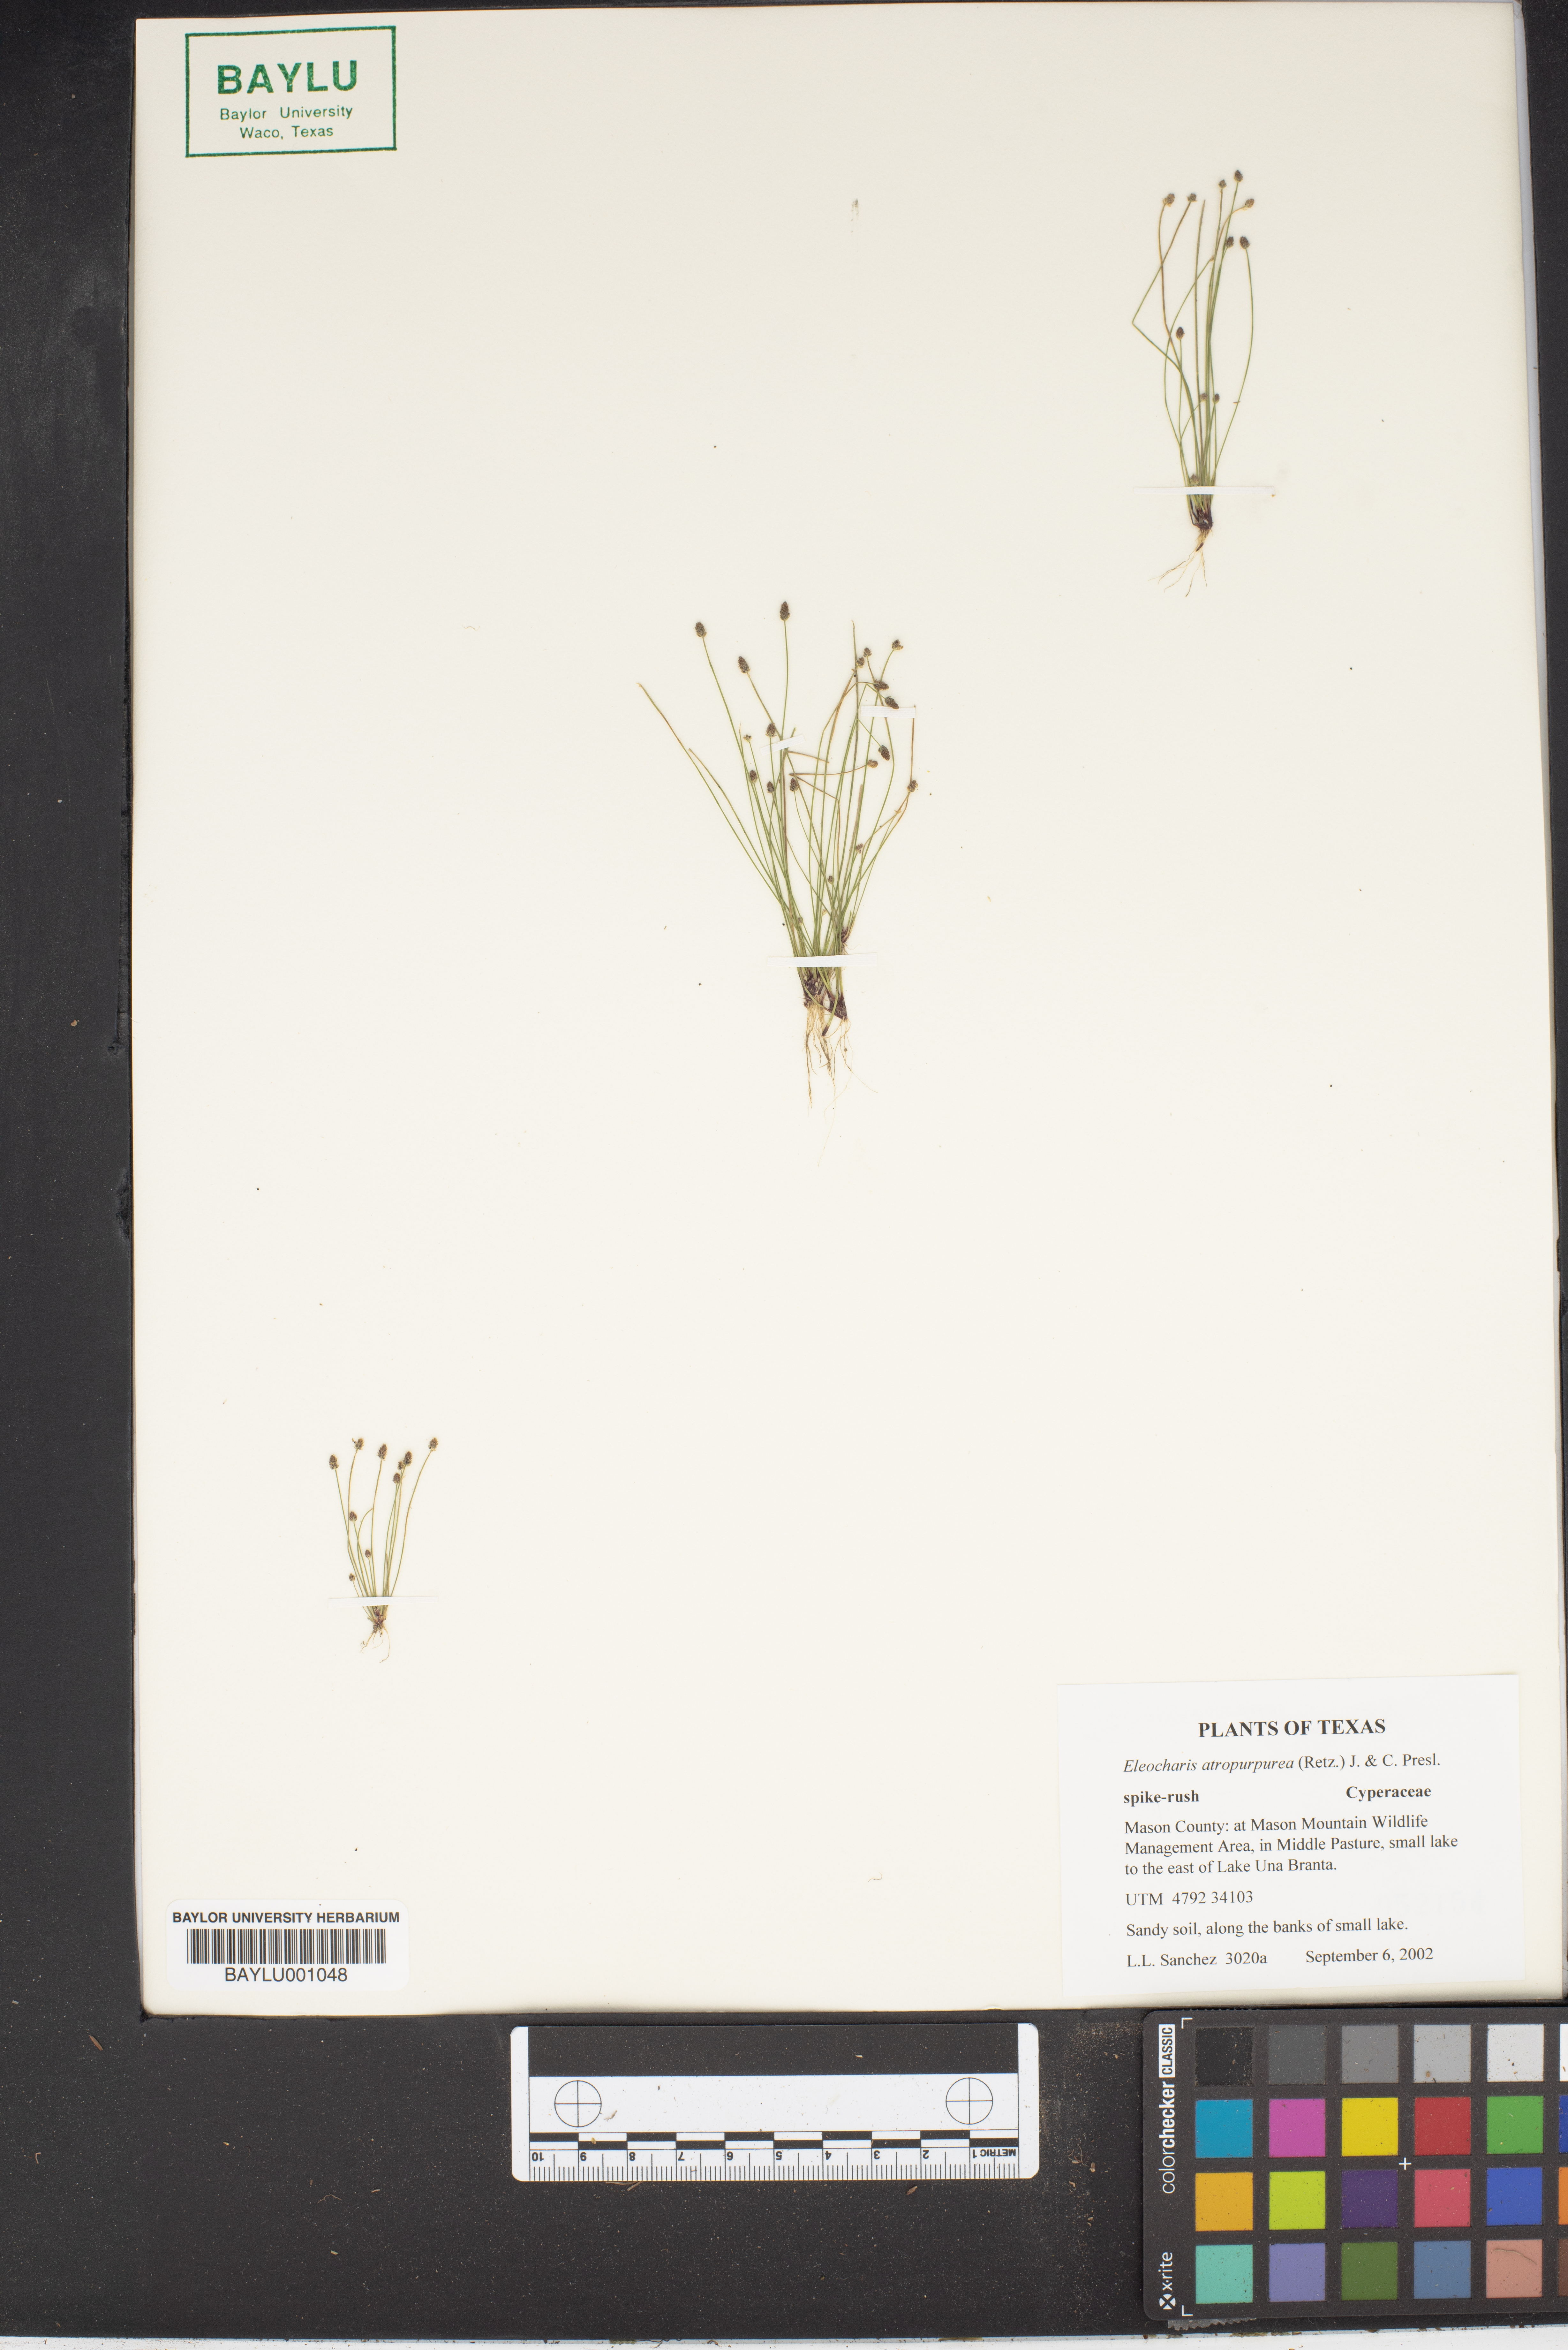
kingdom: Plantae
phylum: Tracheophyta
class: Liliopsida
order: Poales
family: Cyperaceae
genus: Eleocharis
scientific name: Eleocharis atropurpurea
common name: Purple spikerush
